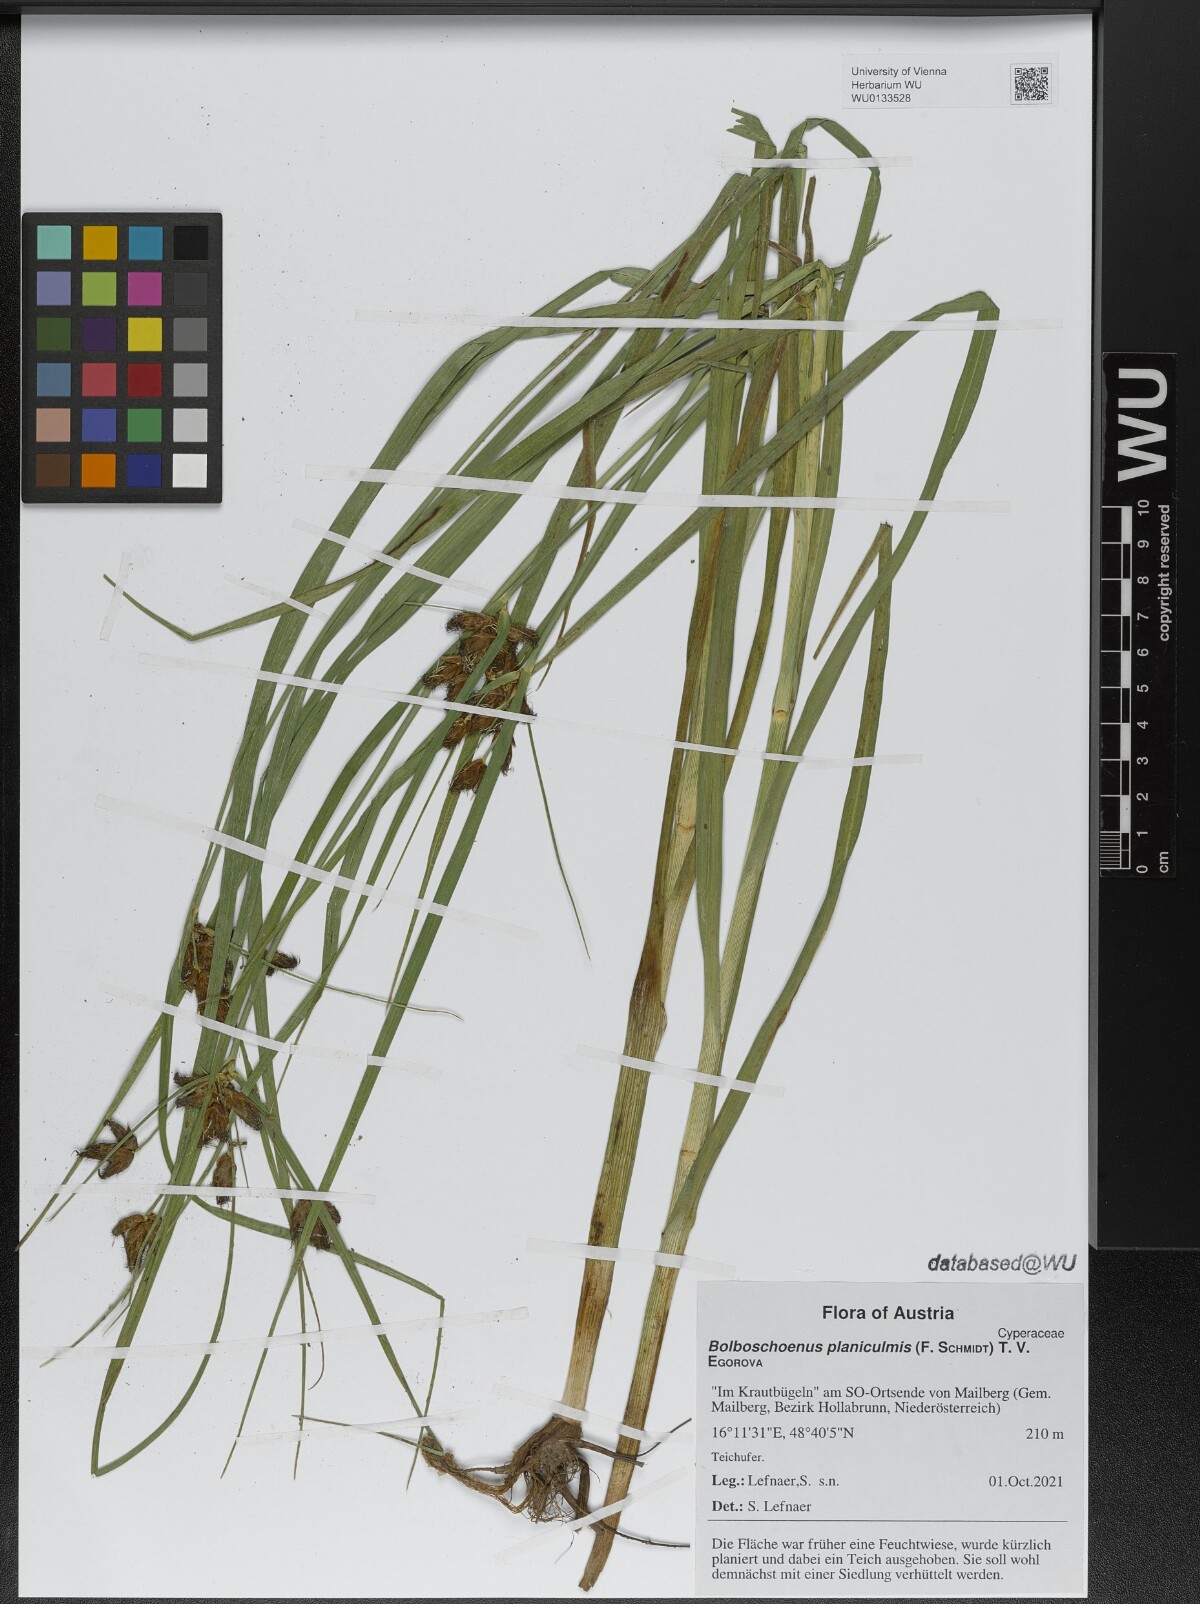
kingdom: Plantae
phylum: Tracheophyta
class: Liliopsida
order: Poales
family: Cyperaceae
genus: Bolboschoenus
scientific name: Bolboschoenus planiculmis
